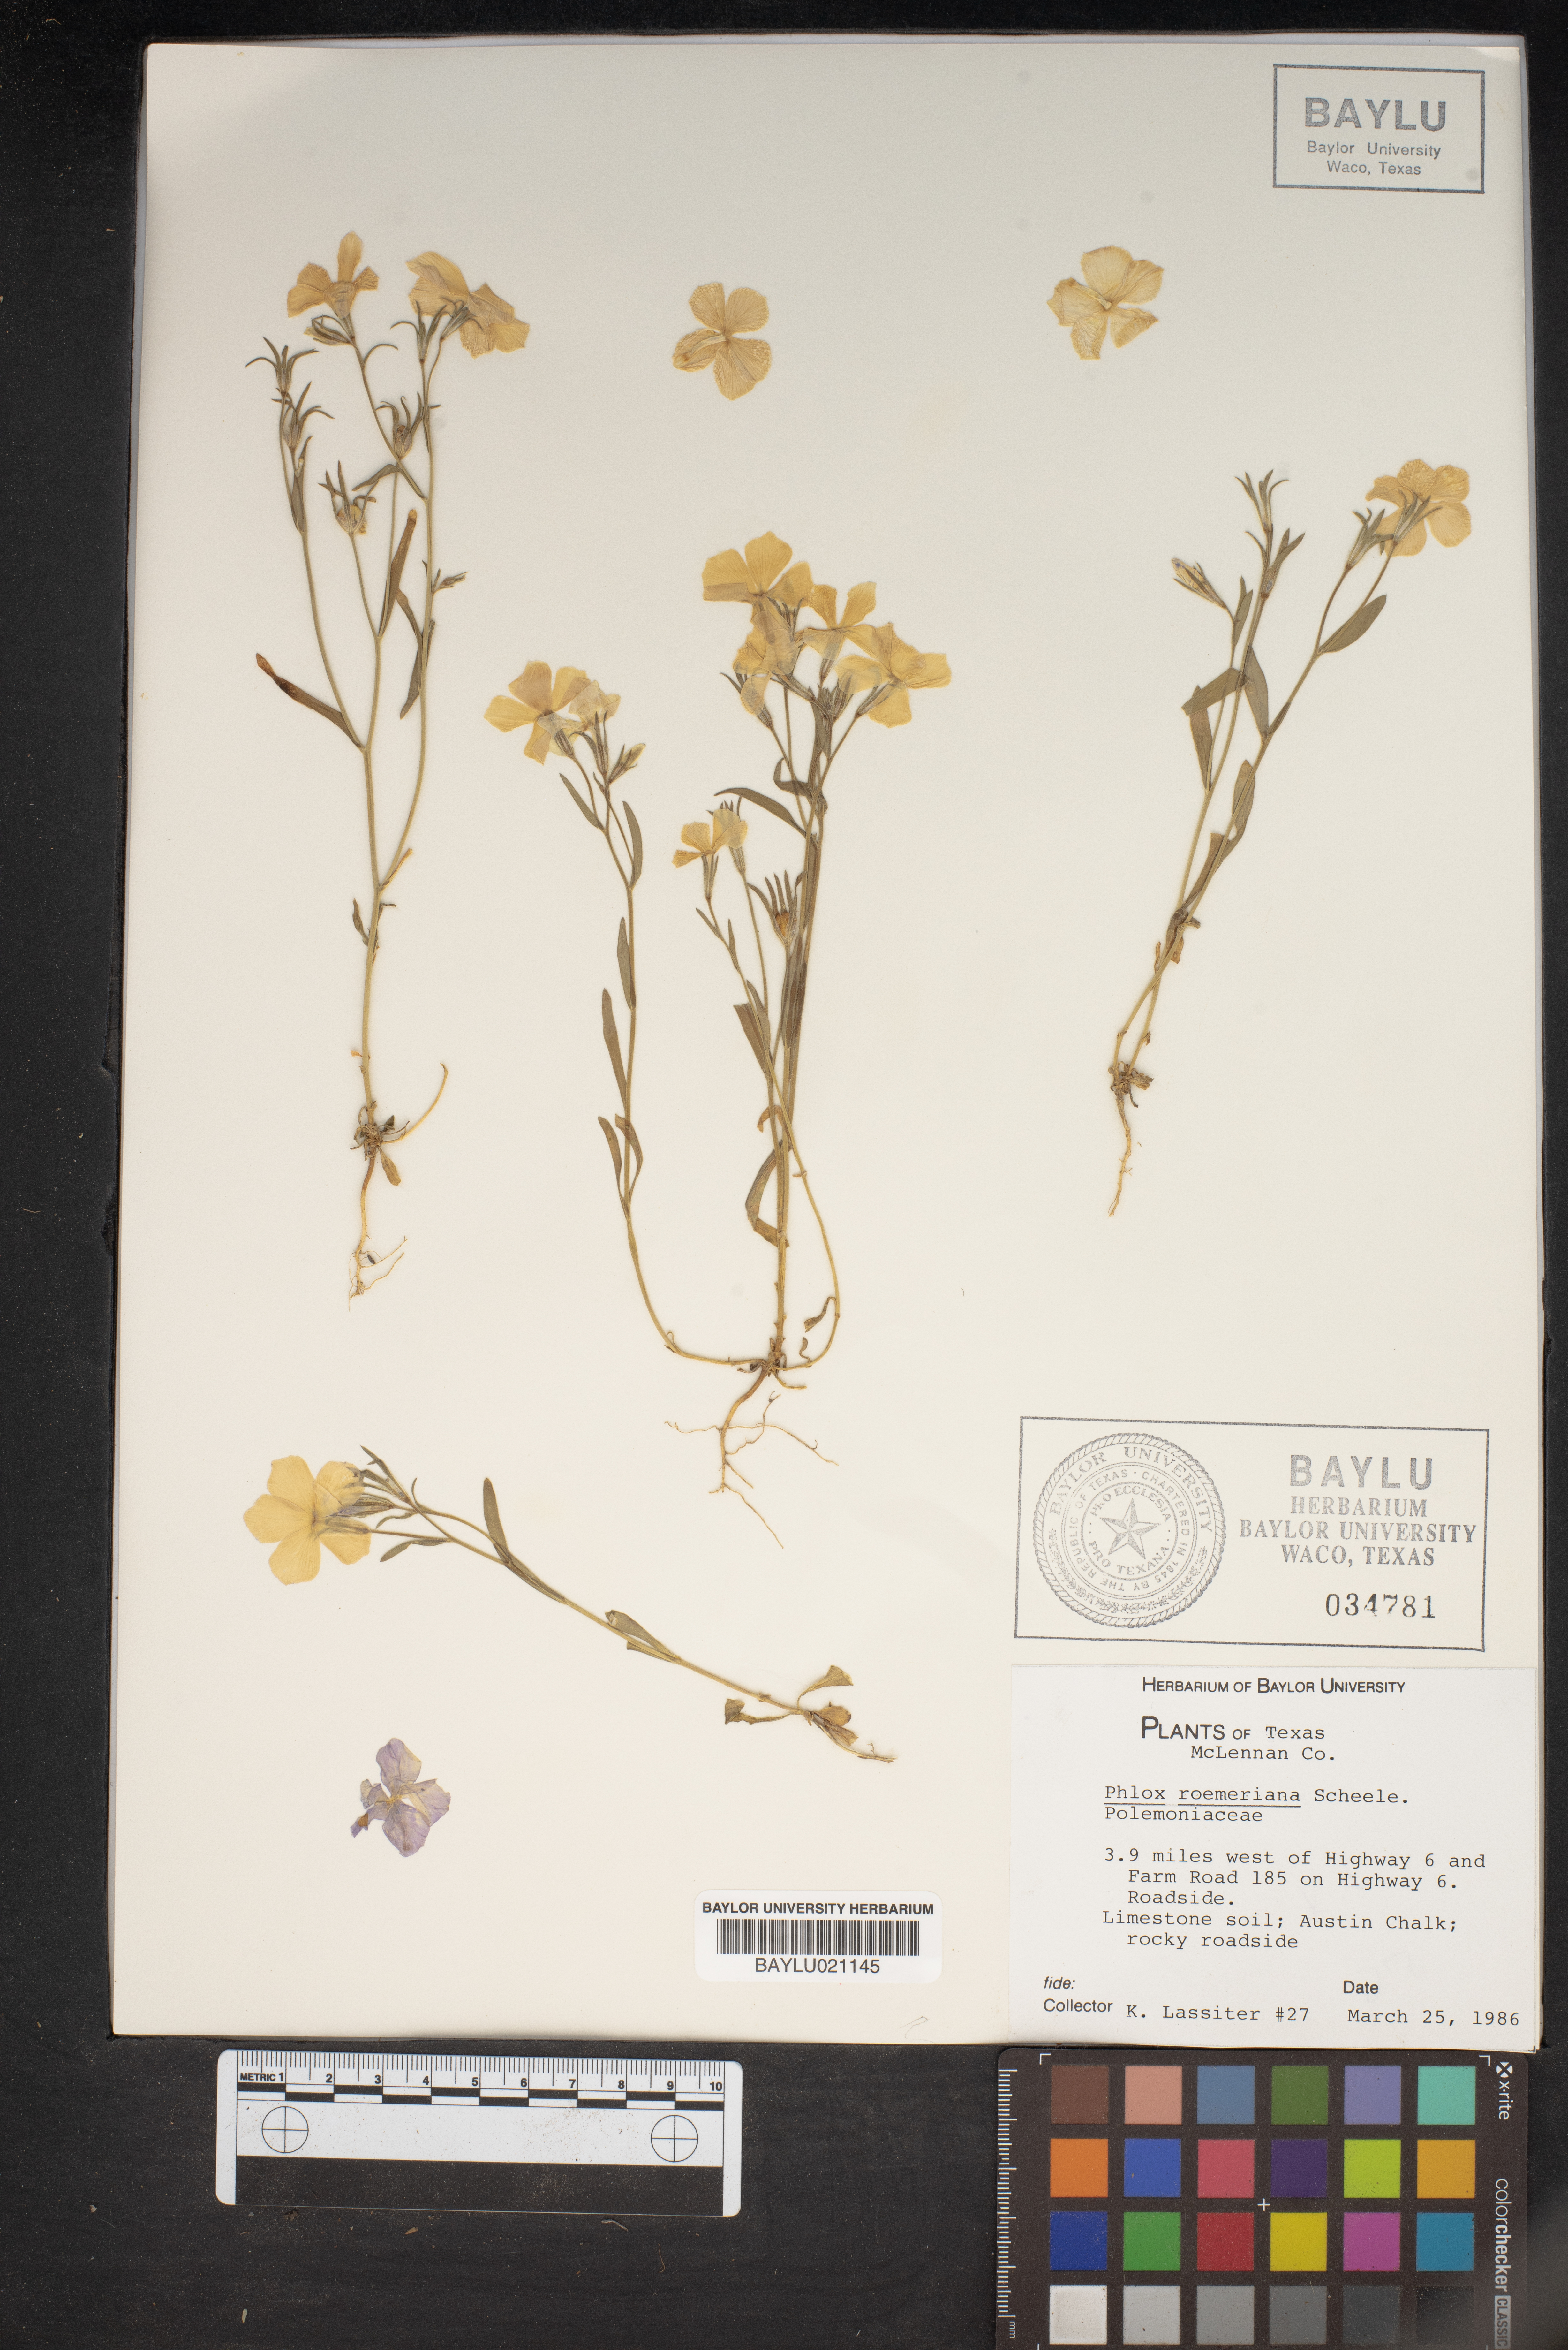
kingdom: Plantae
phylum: Tracheophyta
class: Magnoliopsida
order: Ericales
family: Polemoniaceae
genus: Phlox
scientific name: Phlox roemeriana
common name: Roemer's phlox
